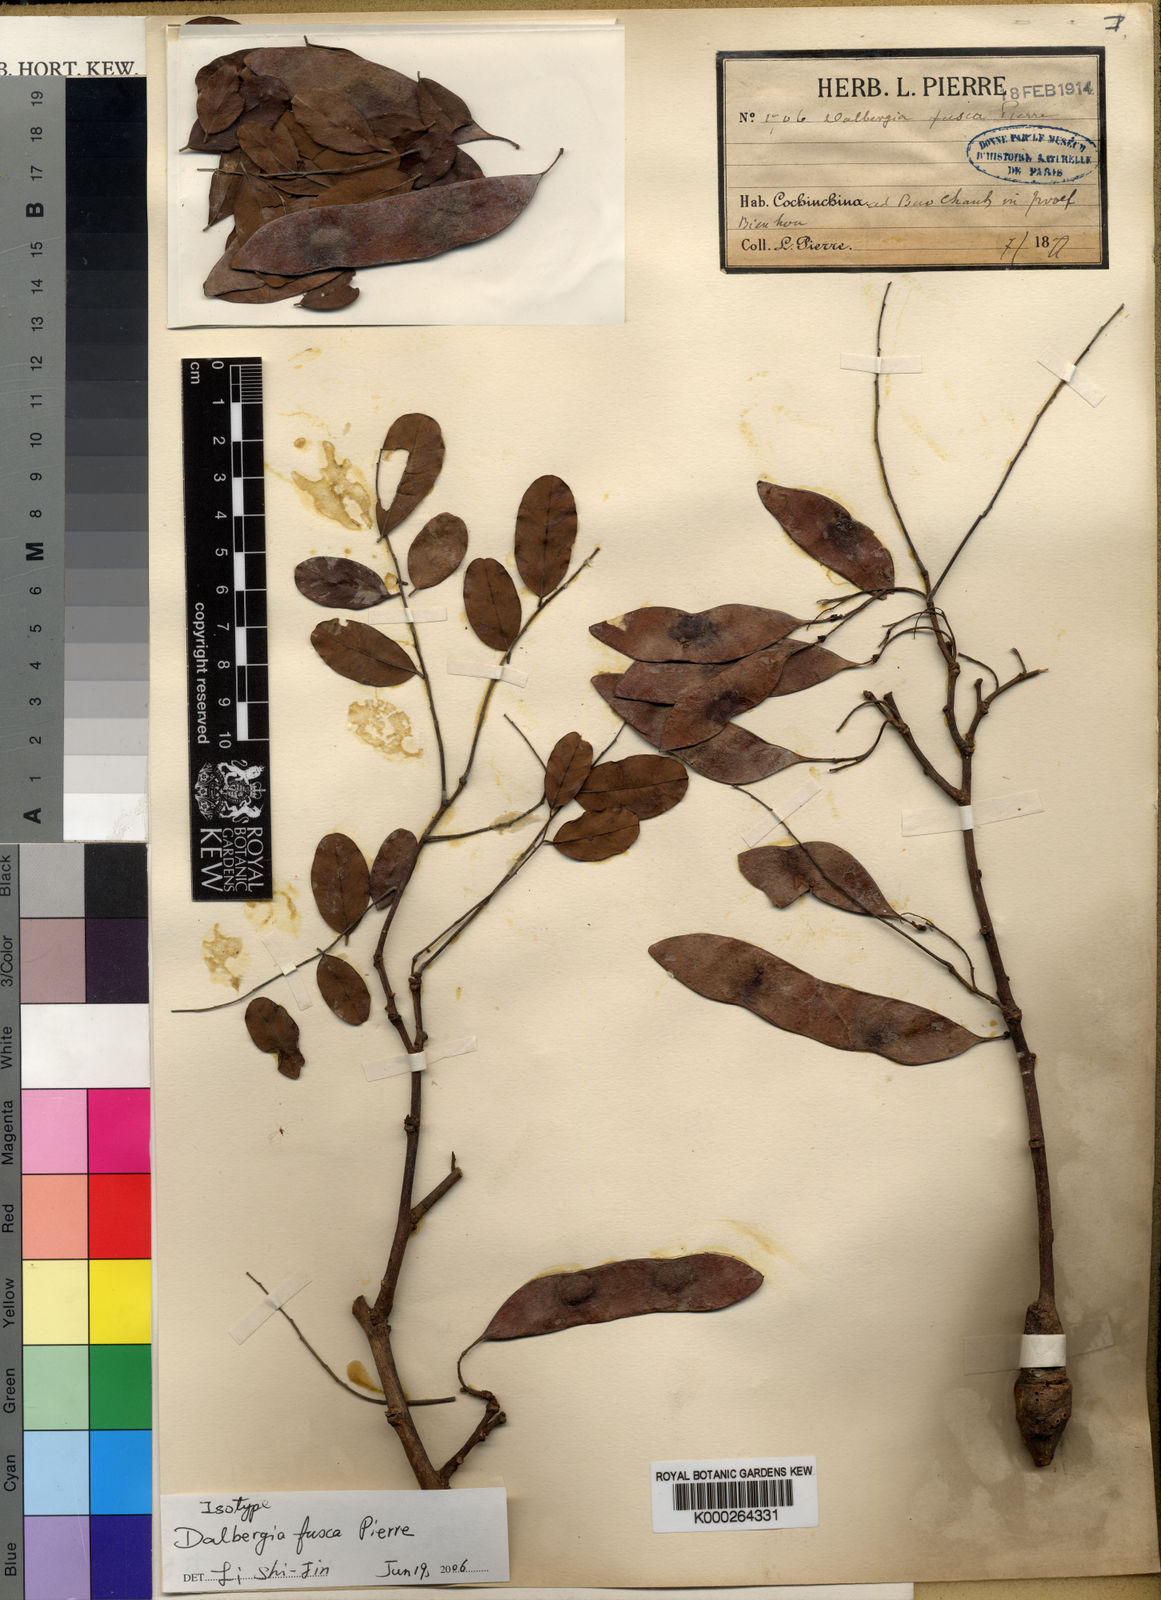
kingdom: Plantae
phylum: Tracheophyta
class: Magnoliopsida
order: Fabales
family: Fabaceae
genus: Dalbergia
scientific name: Dalbergia cultrata
